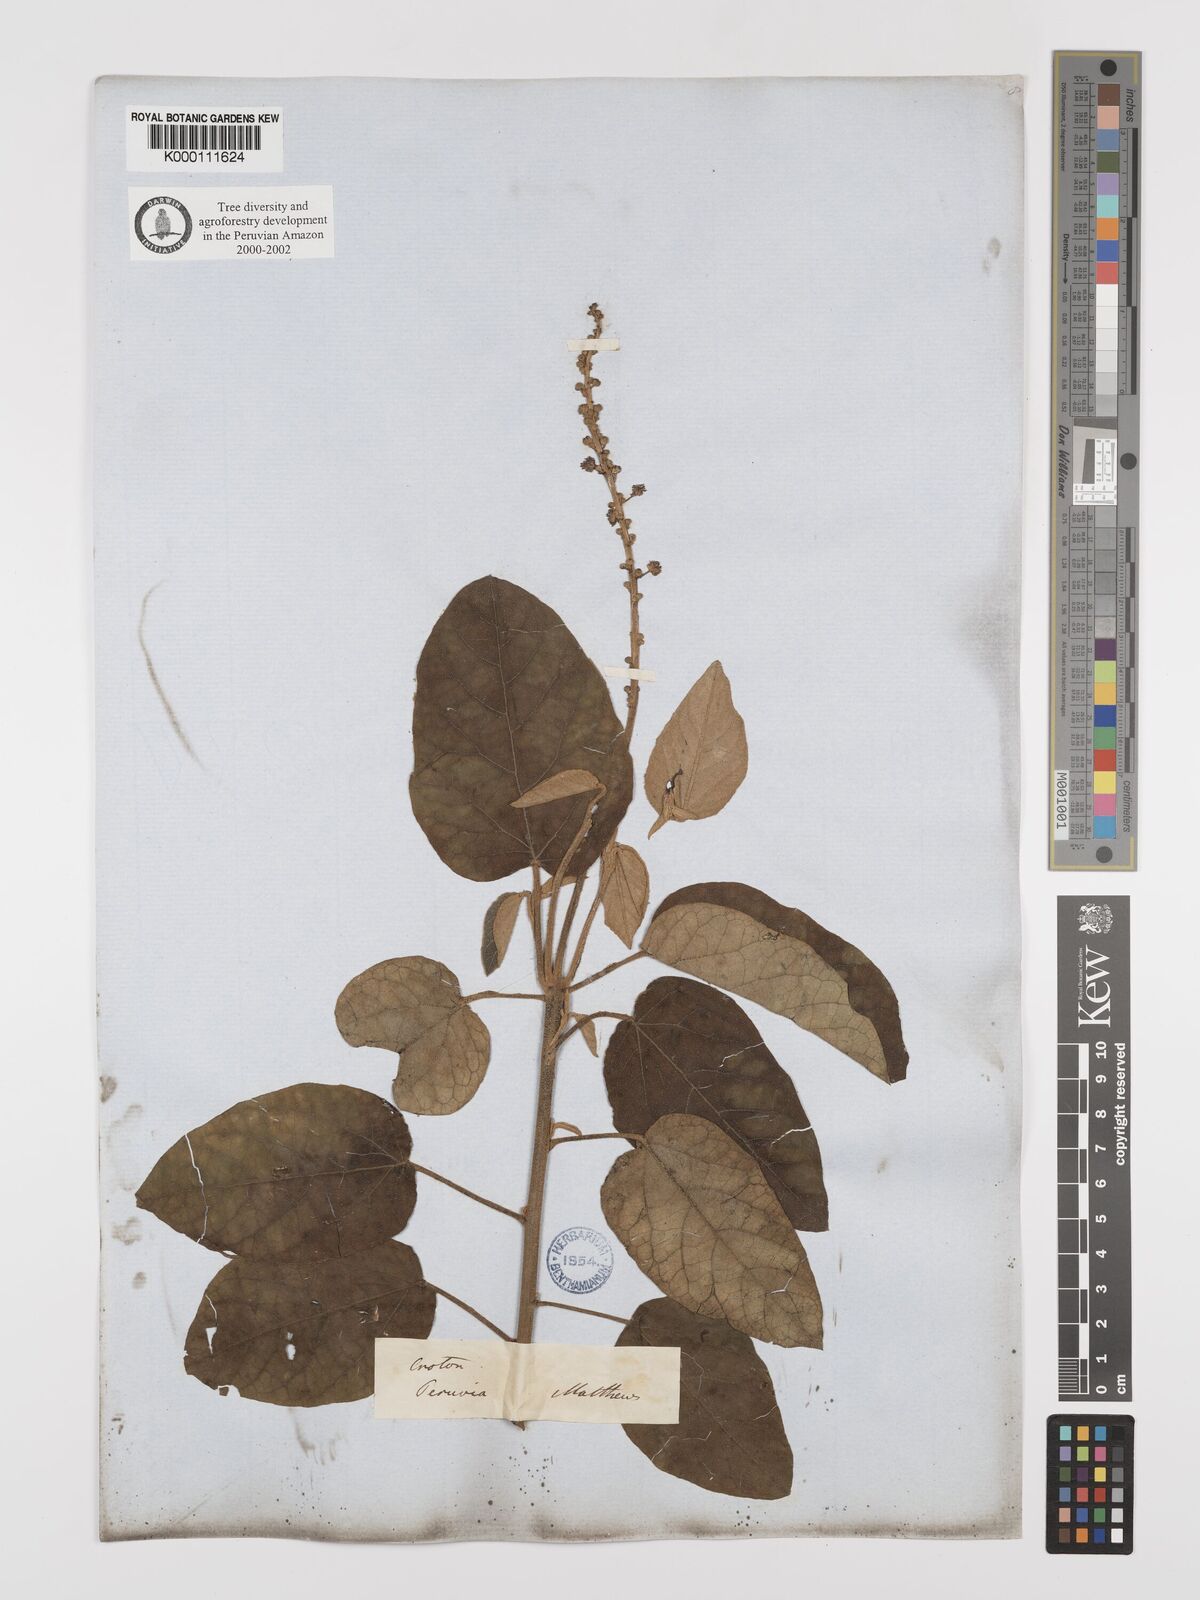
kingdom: Plantae
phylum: Tracheophyta
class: Magnoliopsida
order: Malpighiales
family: Euphorbiaceae
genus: Croton
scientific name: Croton alnifolius
